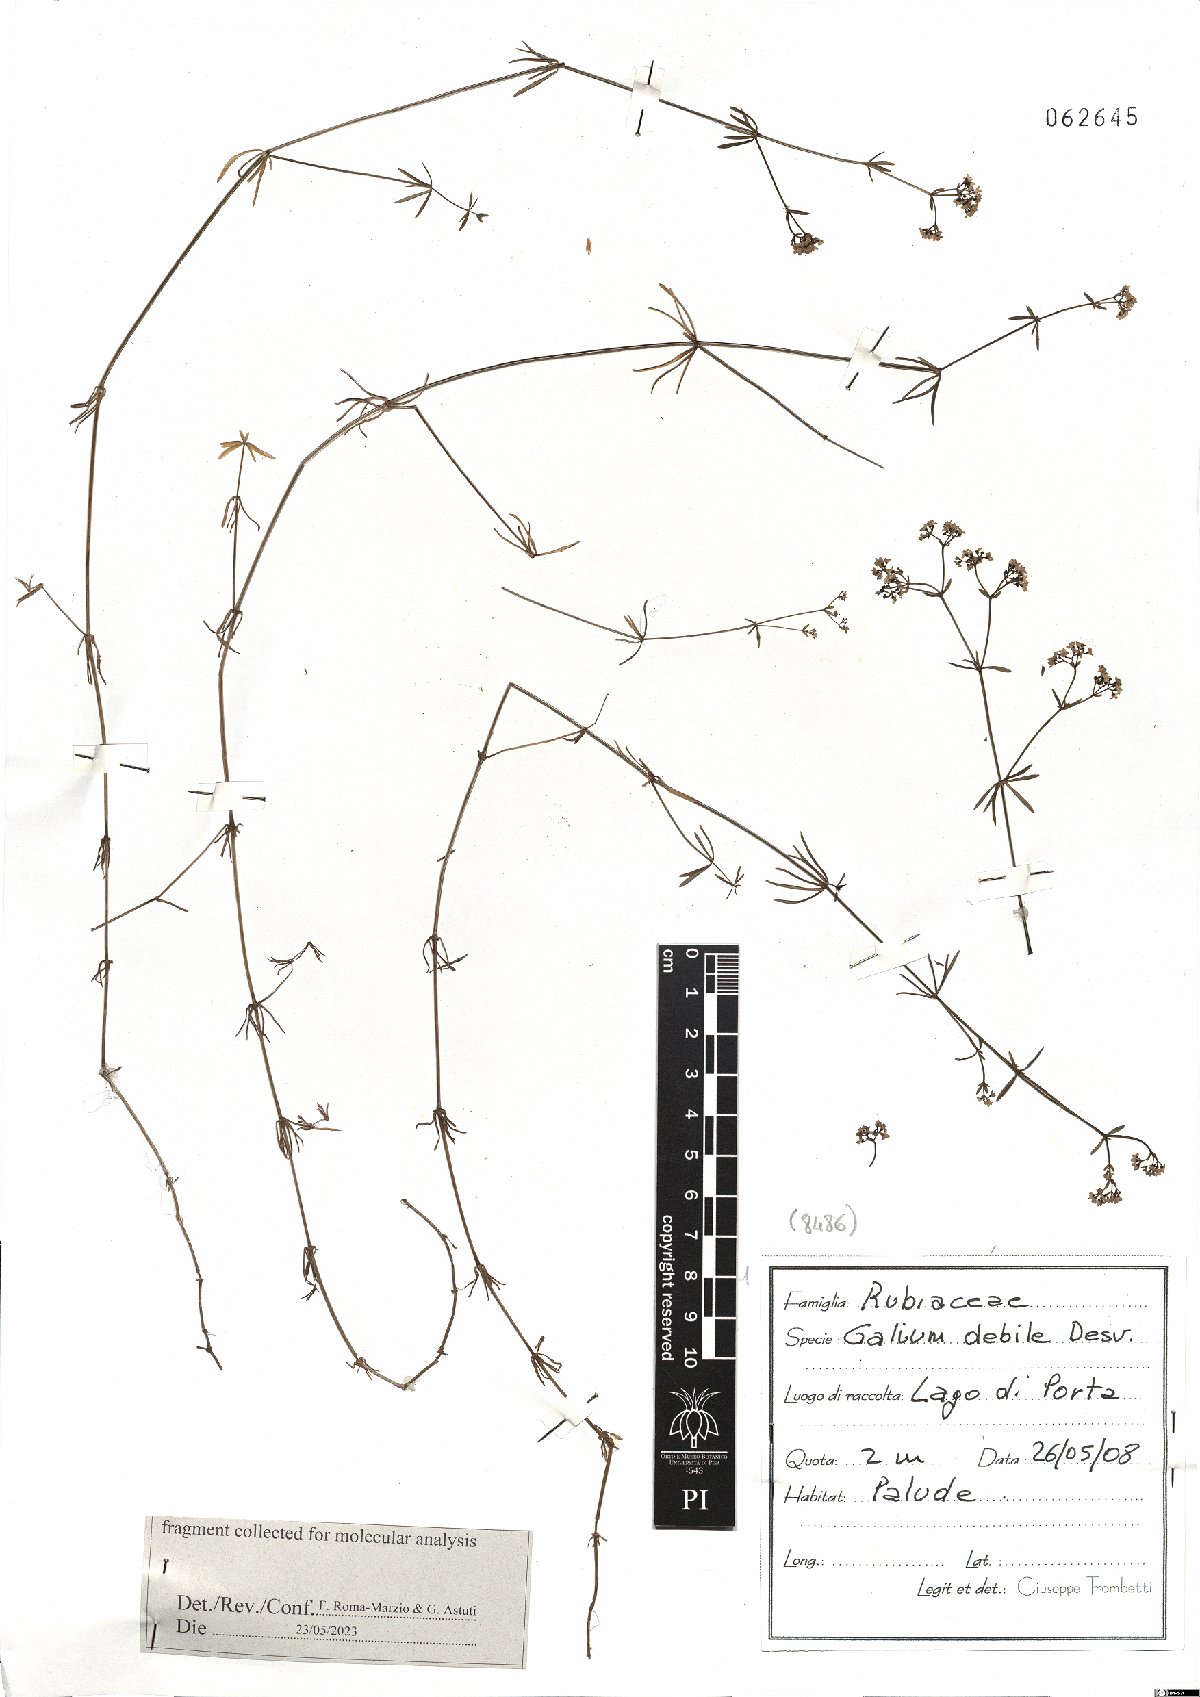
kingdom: Plantae
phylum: Tracheophyta
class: Magnoliopsida
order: Gentianales
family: Rubiaceae
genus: Galium
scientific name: Galium debile
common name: Slender marsh-bedstraw
